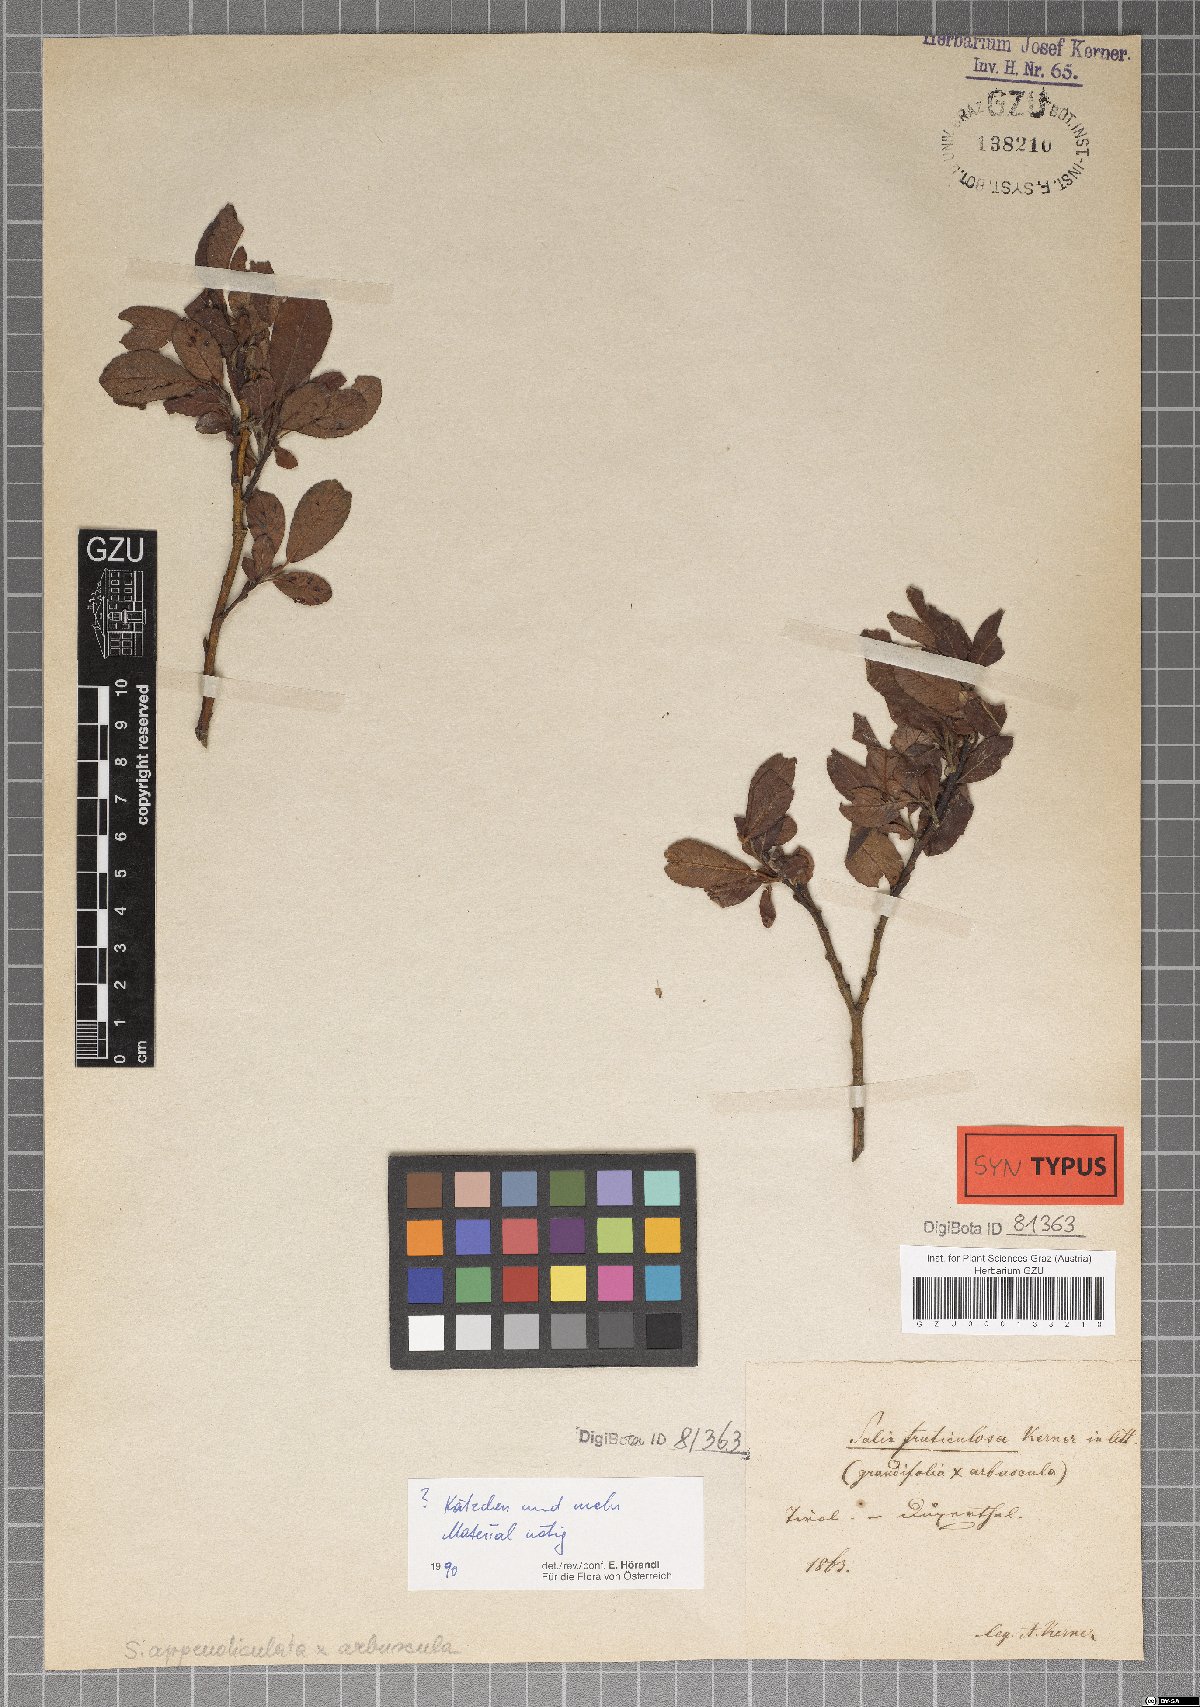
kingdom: Plantae
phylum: Tracheophyta
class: Magnoliopsida
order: Malpighiales
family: Salicaceae
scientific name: Salicaceae
